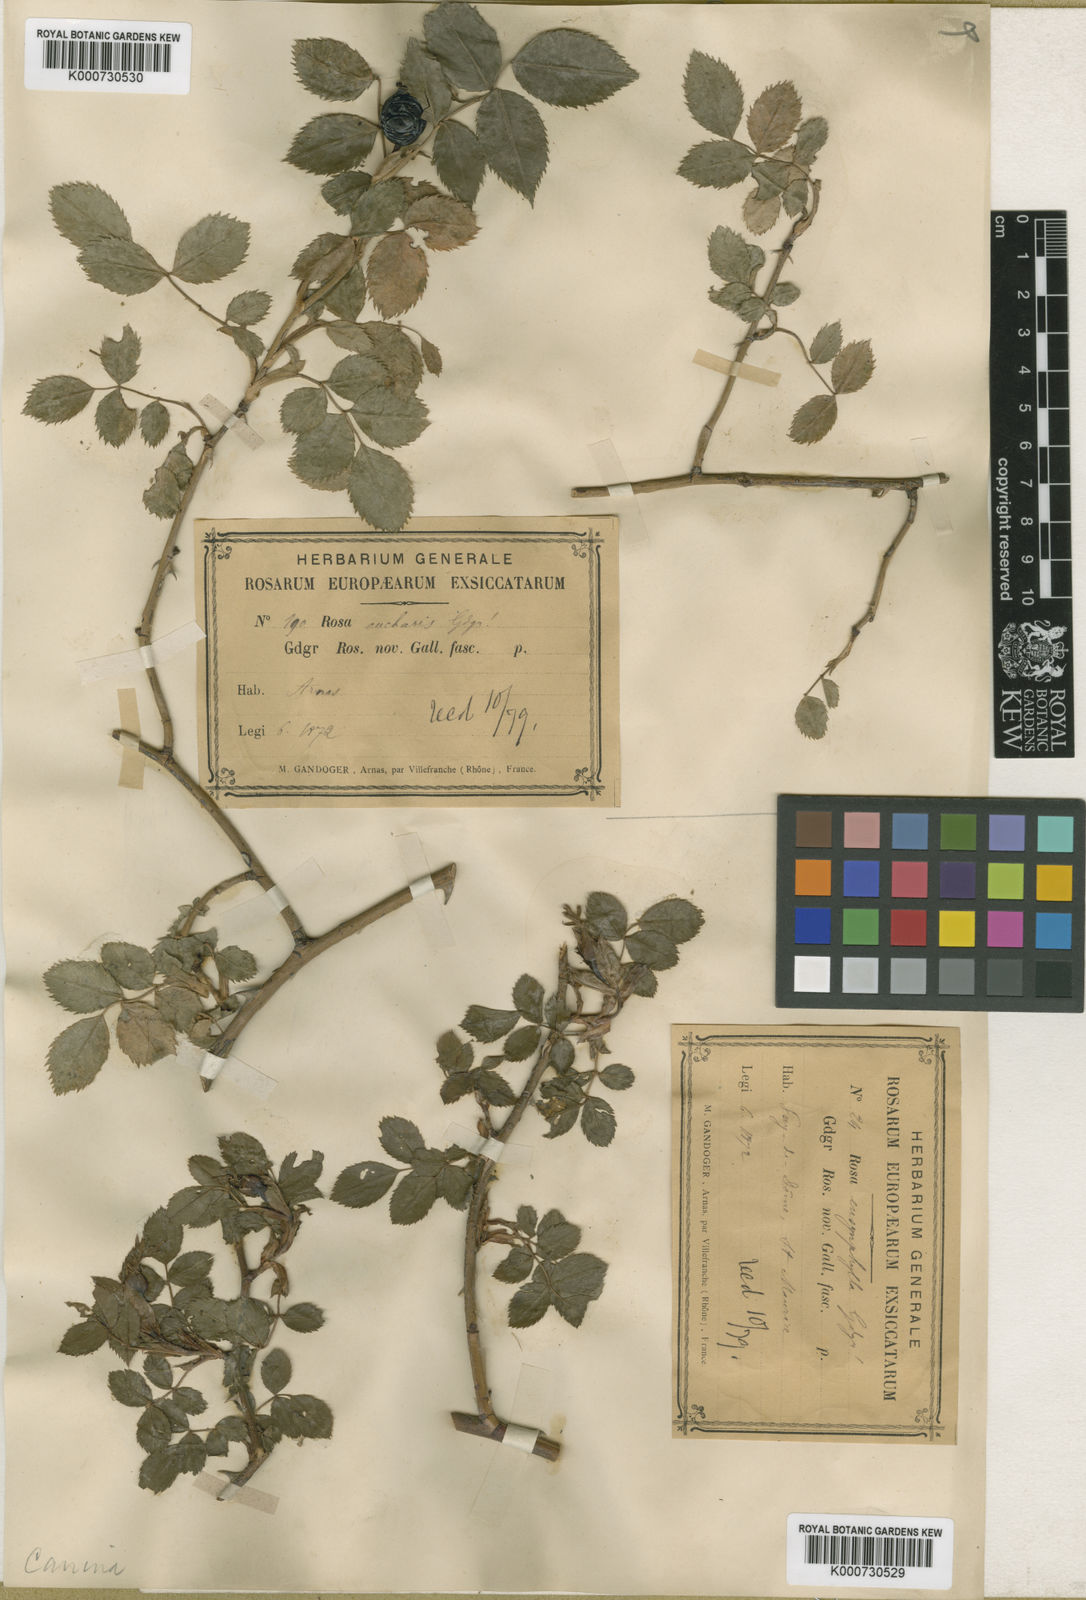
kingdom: Plantae
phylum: Tracheophyta
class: Magnoliopsida
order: Rosales
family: Rosaceae
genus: Rosa
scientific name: Rosa canina
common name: Dog rose
